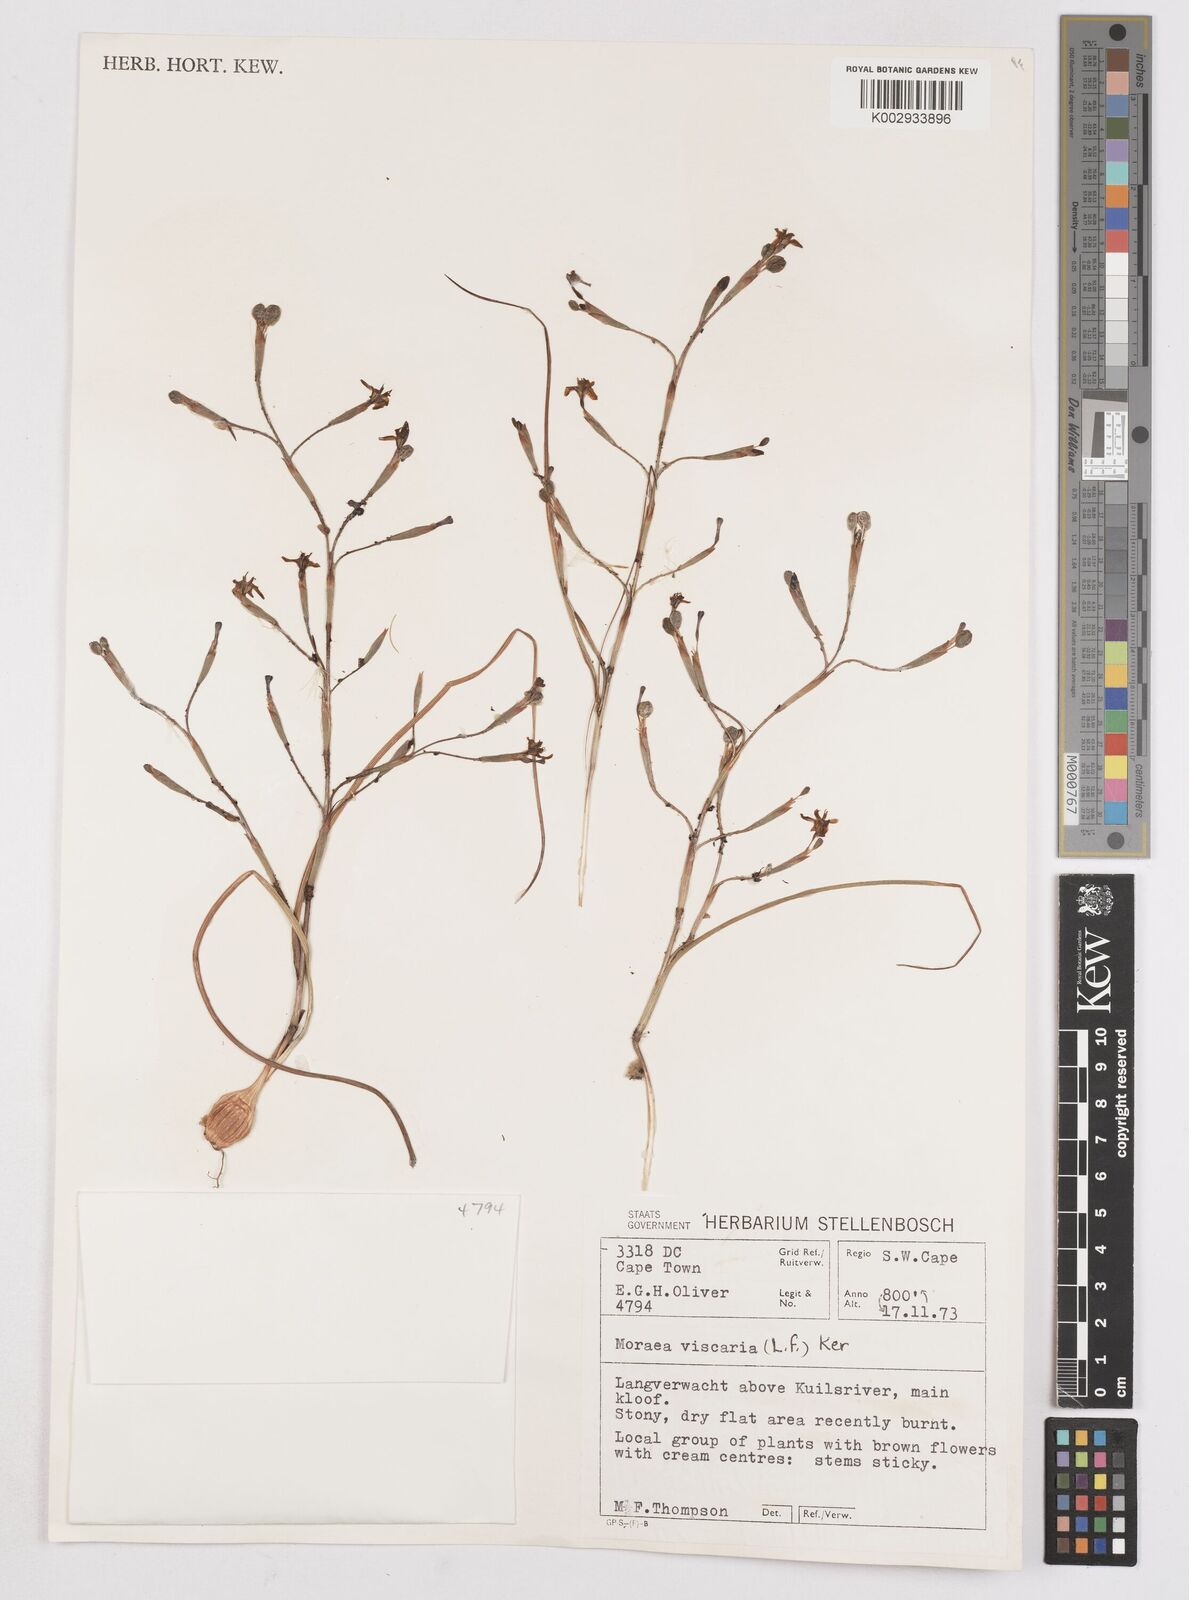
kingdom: Plantae
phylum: Tracheophyta
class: Liliopsida
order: Asparagales
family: Iridaceae
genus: Moraea
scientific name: Moraea viscaria
